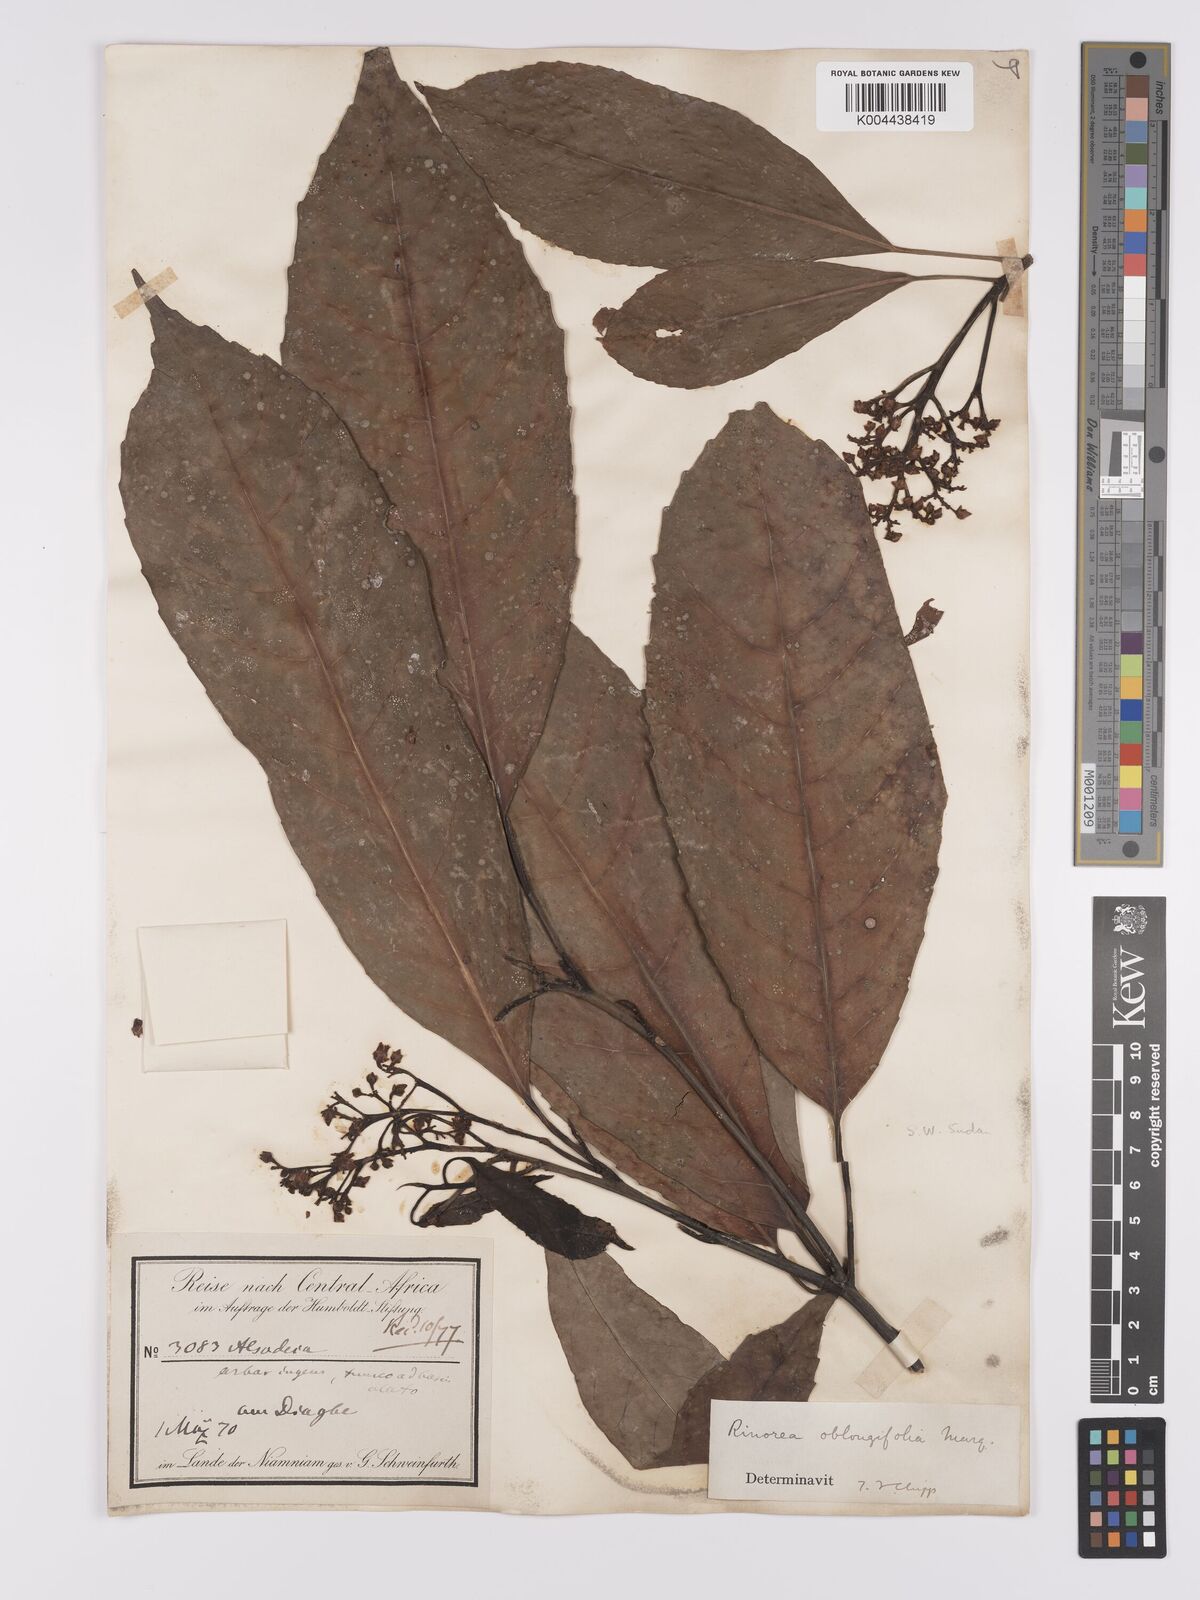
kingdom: Plantae
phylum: Tracheophyta
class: Magnoliopsida
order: Apiales
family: Pittosporaceae
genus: Marianthus
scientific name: Marianthus coeruleopunctatus
